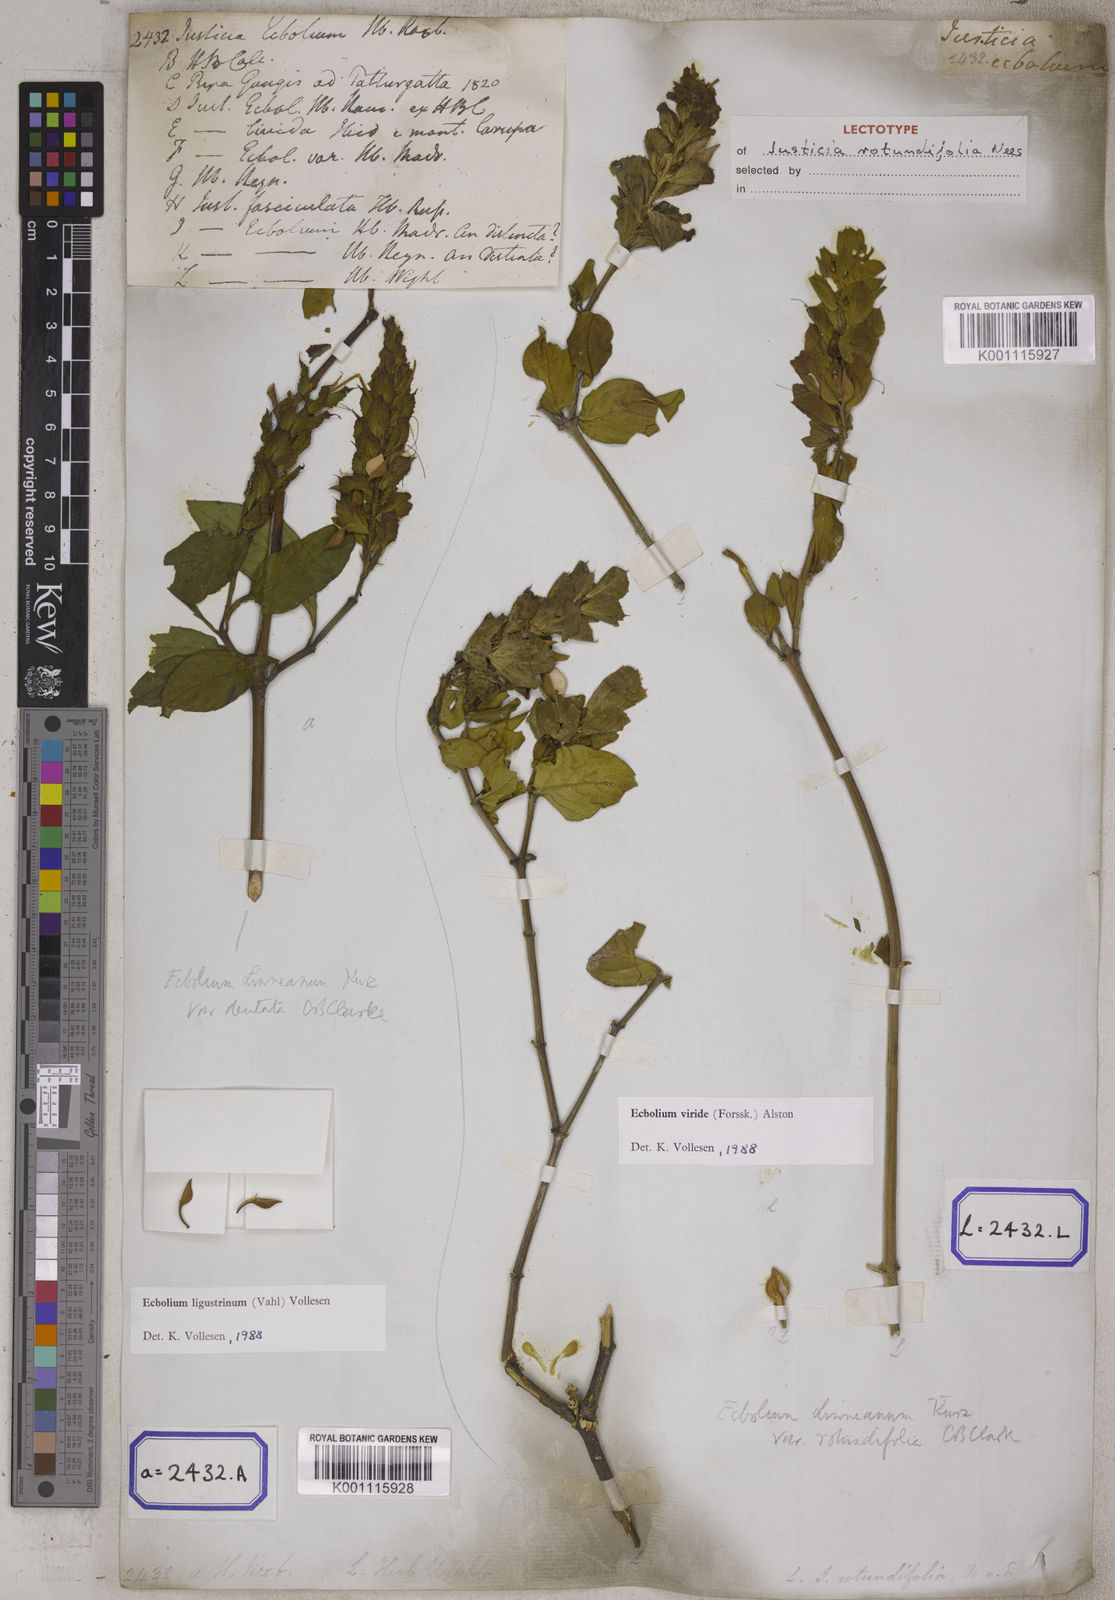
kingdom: Plantae
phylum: Tracheophyta
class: Magnoliopsida
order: Lamiales
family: Acanthaceae
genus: Ecbolium
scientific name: Ecbolium ligustrinum
